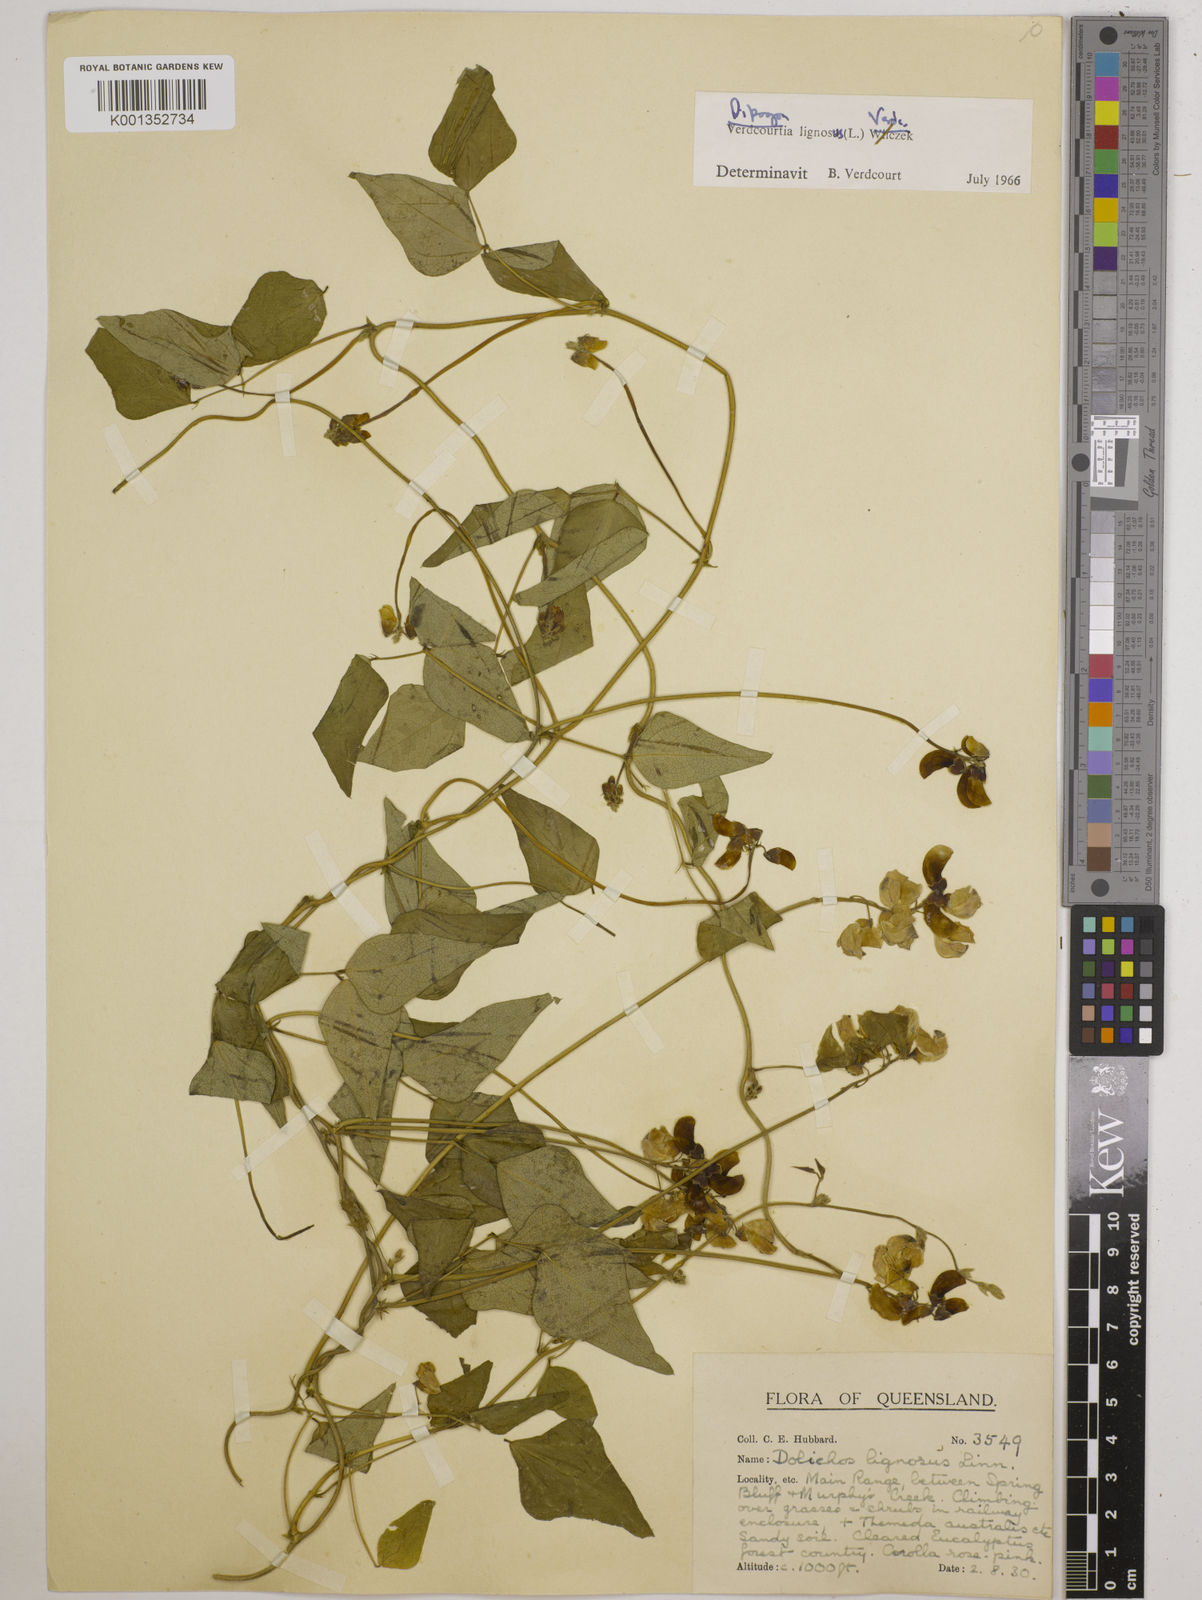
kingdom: Plantae
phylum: Tracheophyta
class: Magnoliopsida
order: Fabales
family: Fabaceae
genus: Dipogon
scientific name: Dipogon lignosus
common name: Okie bean
